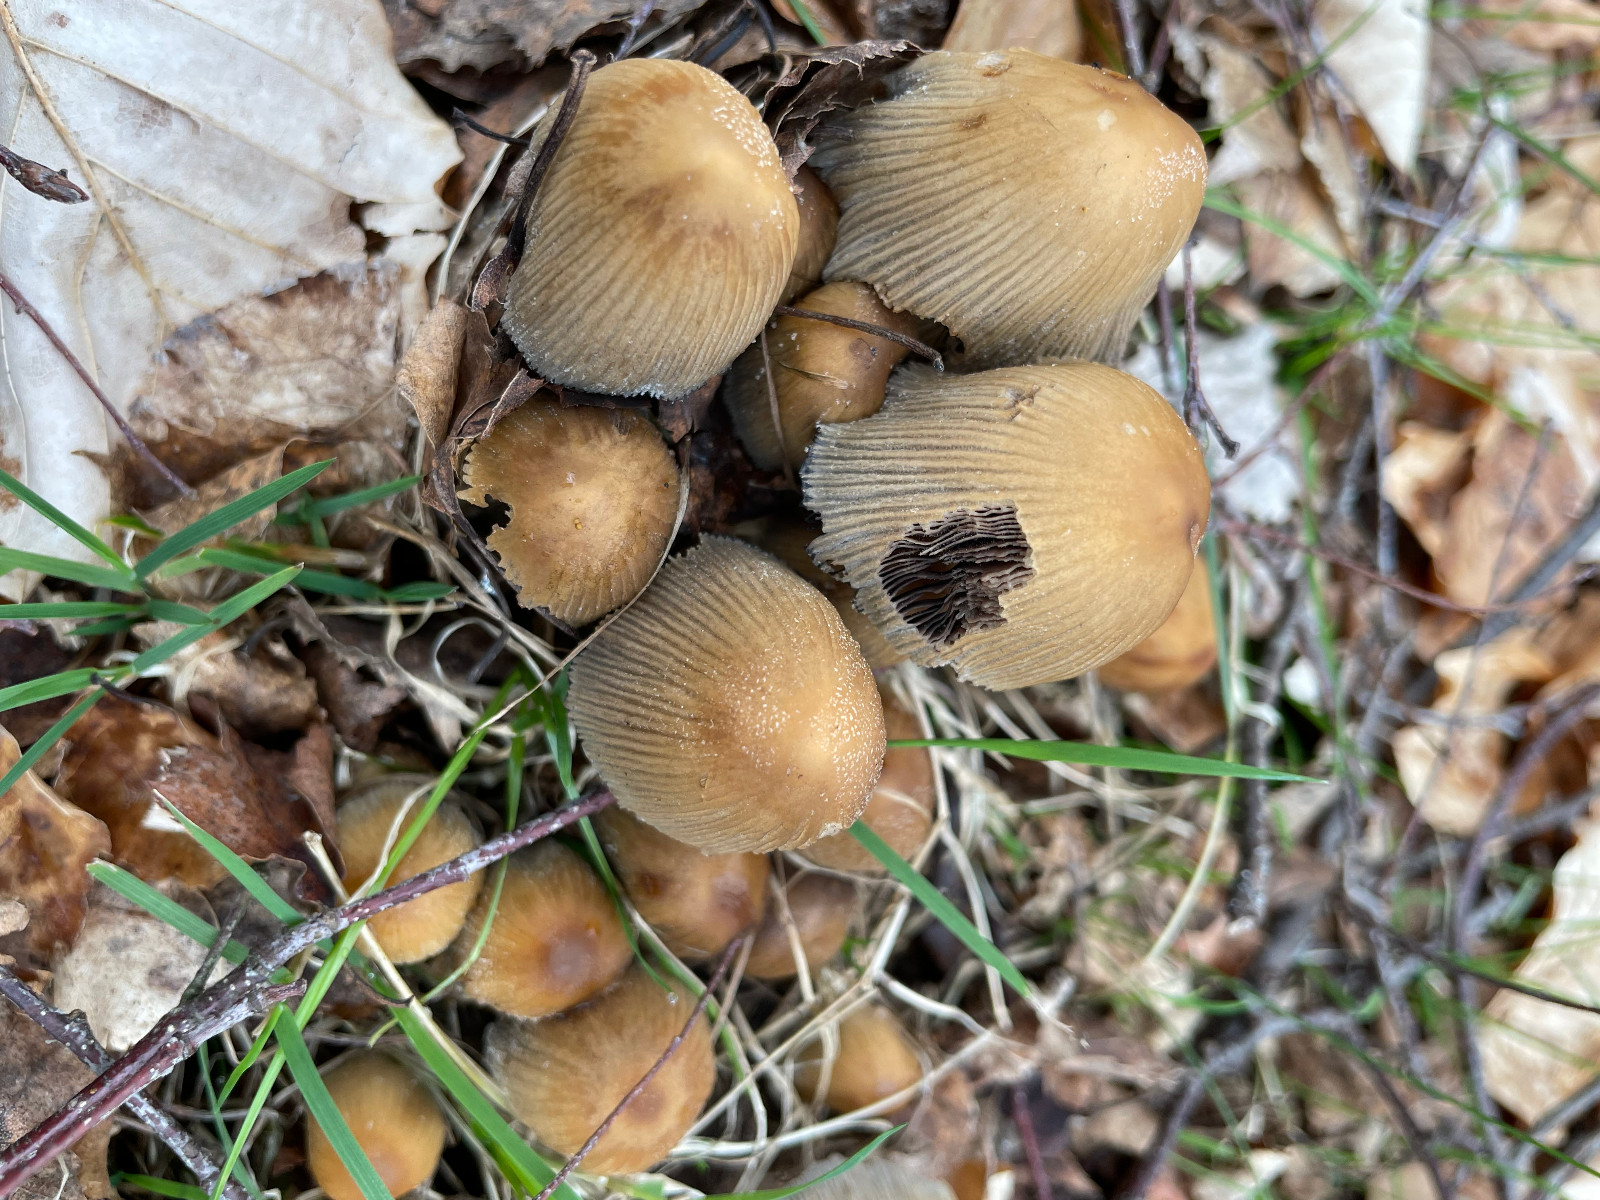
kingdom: Fungi
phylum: Basidiomycota
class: Agaricomycetes
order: Agaricales
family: Psathyrellaceae
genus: Coprinellus
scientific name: Coprinellus
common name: blækhat
